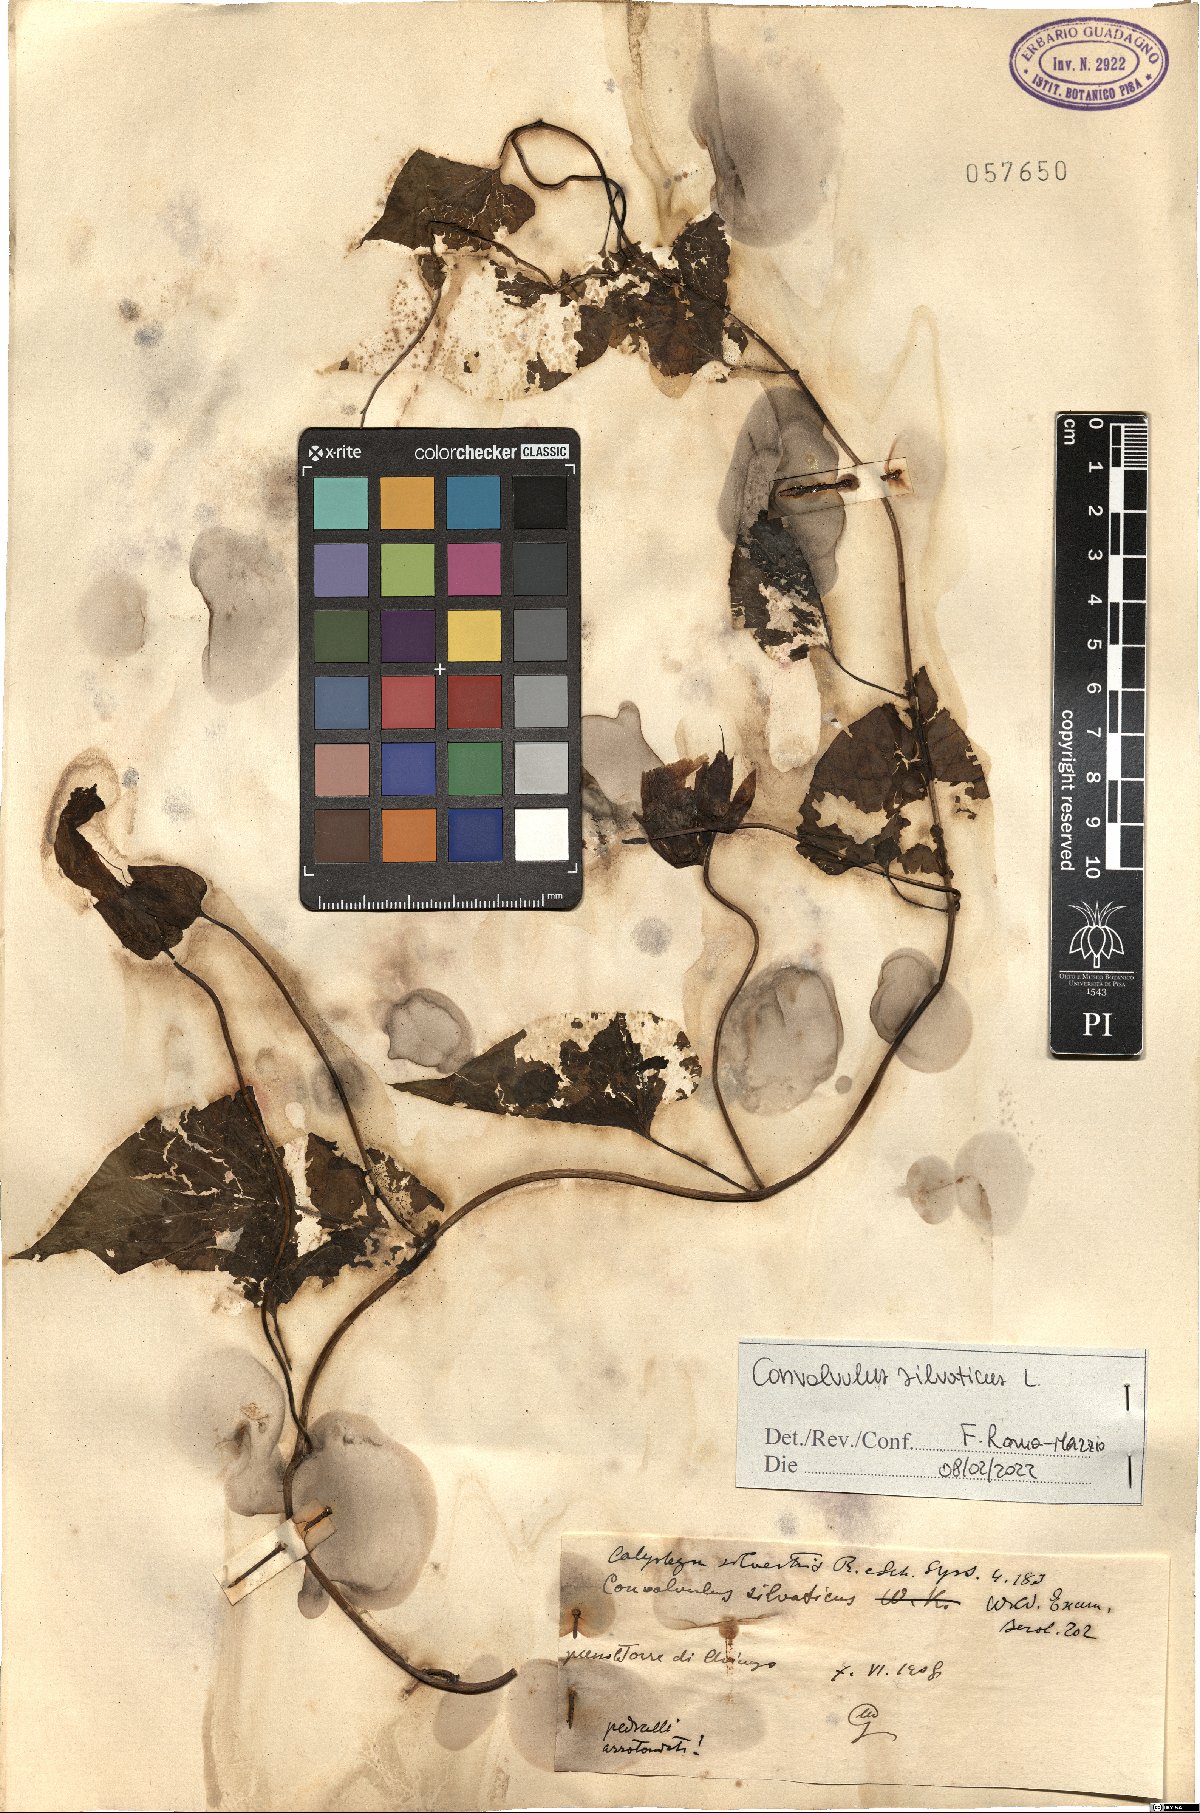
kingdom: Plantae
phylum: Tracheophyta
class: Magnoliopsida
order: Solanales
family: Convolvulaceae
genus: Calystegia
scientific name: Calystegia silvatica
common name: Large bindweed
